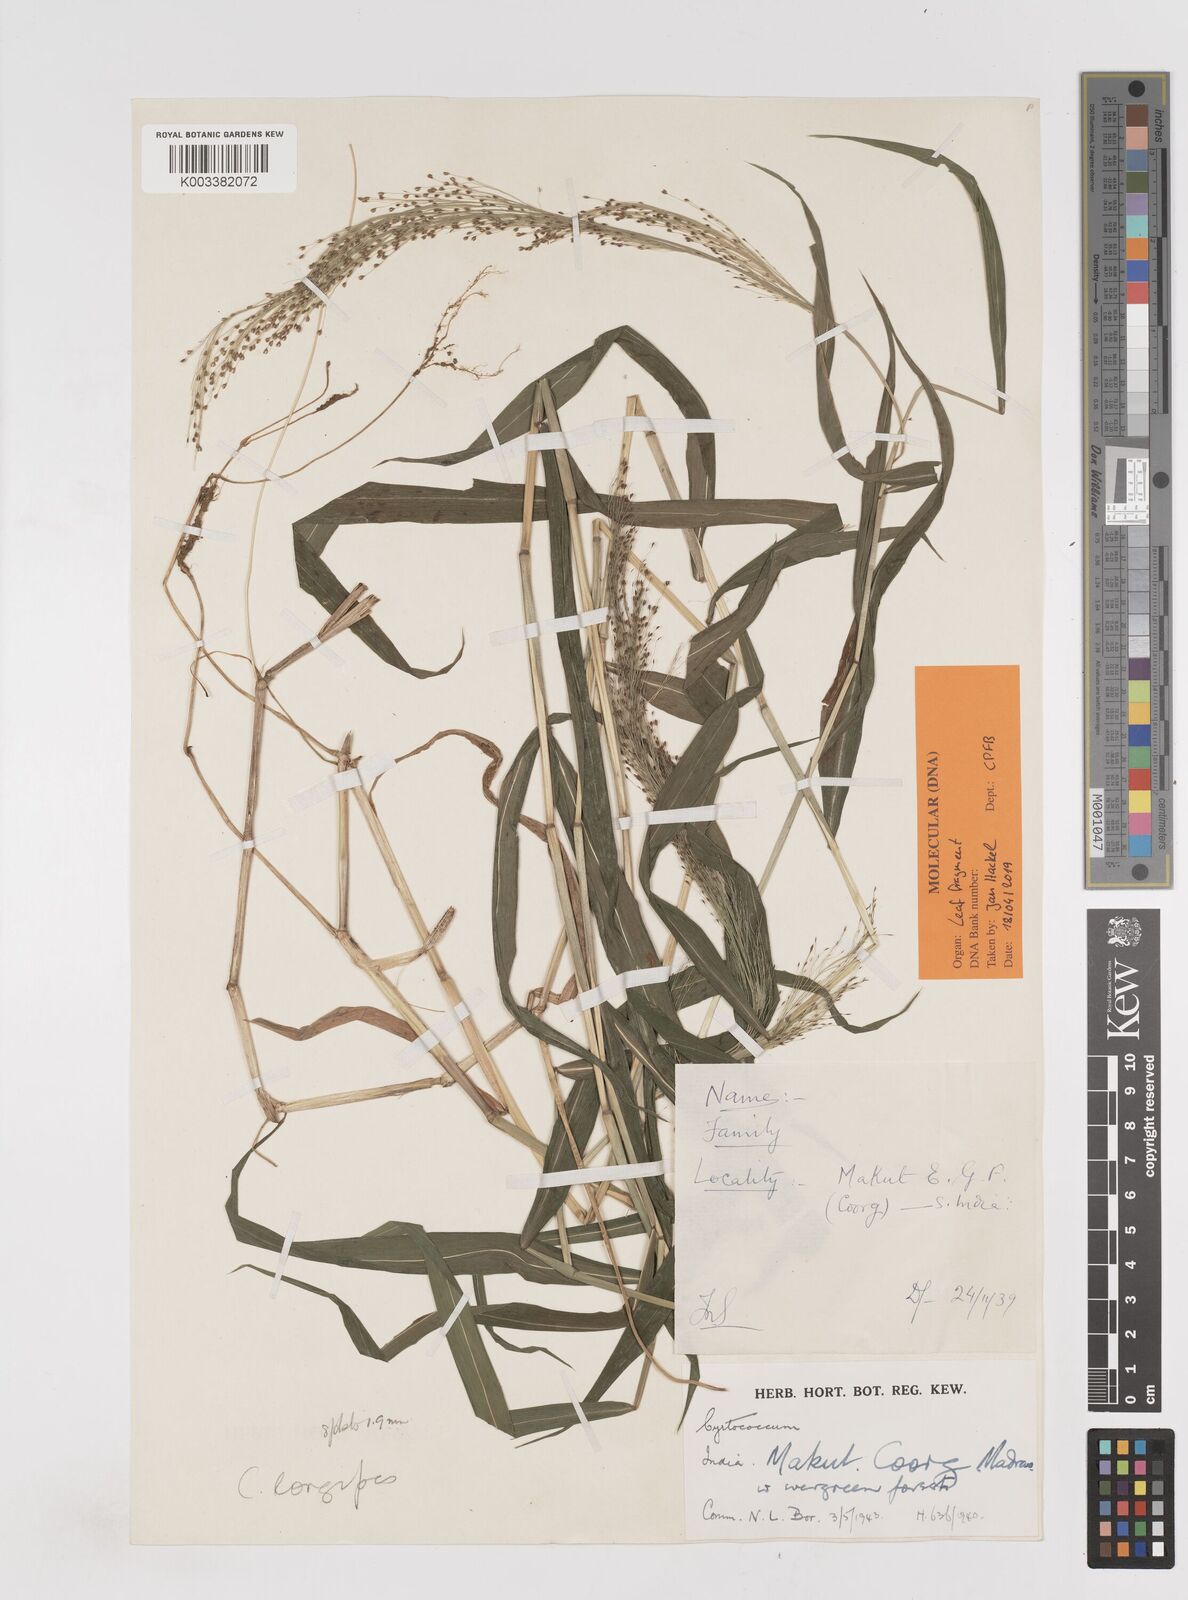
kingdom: Plantae
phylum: Tracheophyta
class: Liliopsida
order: Poales
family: Poaceae
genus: Cyrtococcum
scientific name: Cyrtococcum longipes
